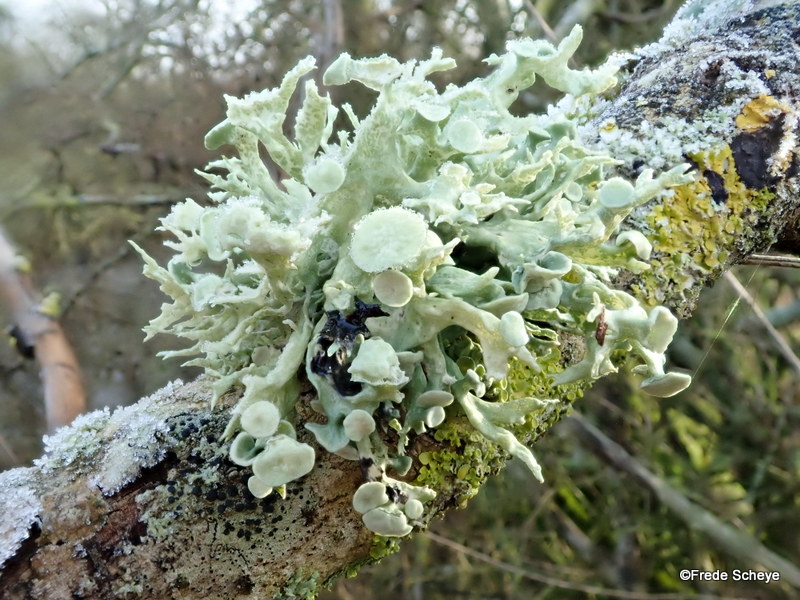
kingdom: Fungi
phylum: Ascomycota
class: Lecanoromycetes
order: Lecanorales
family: Ramalinaceae
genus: Ramalina
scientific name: Ramalina fastigiata
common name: tue-grenlav
